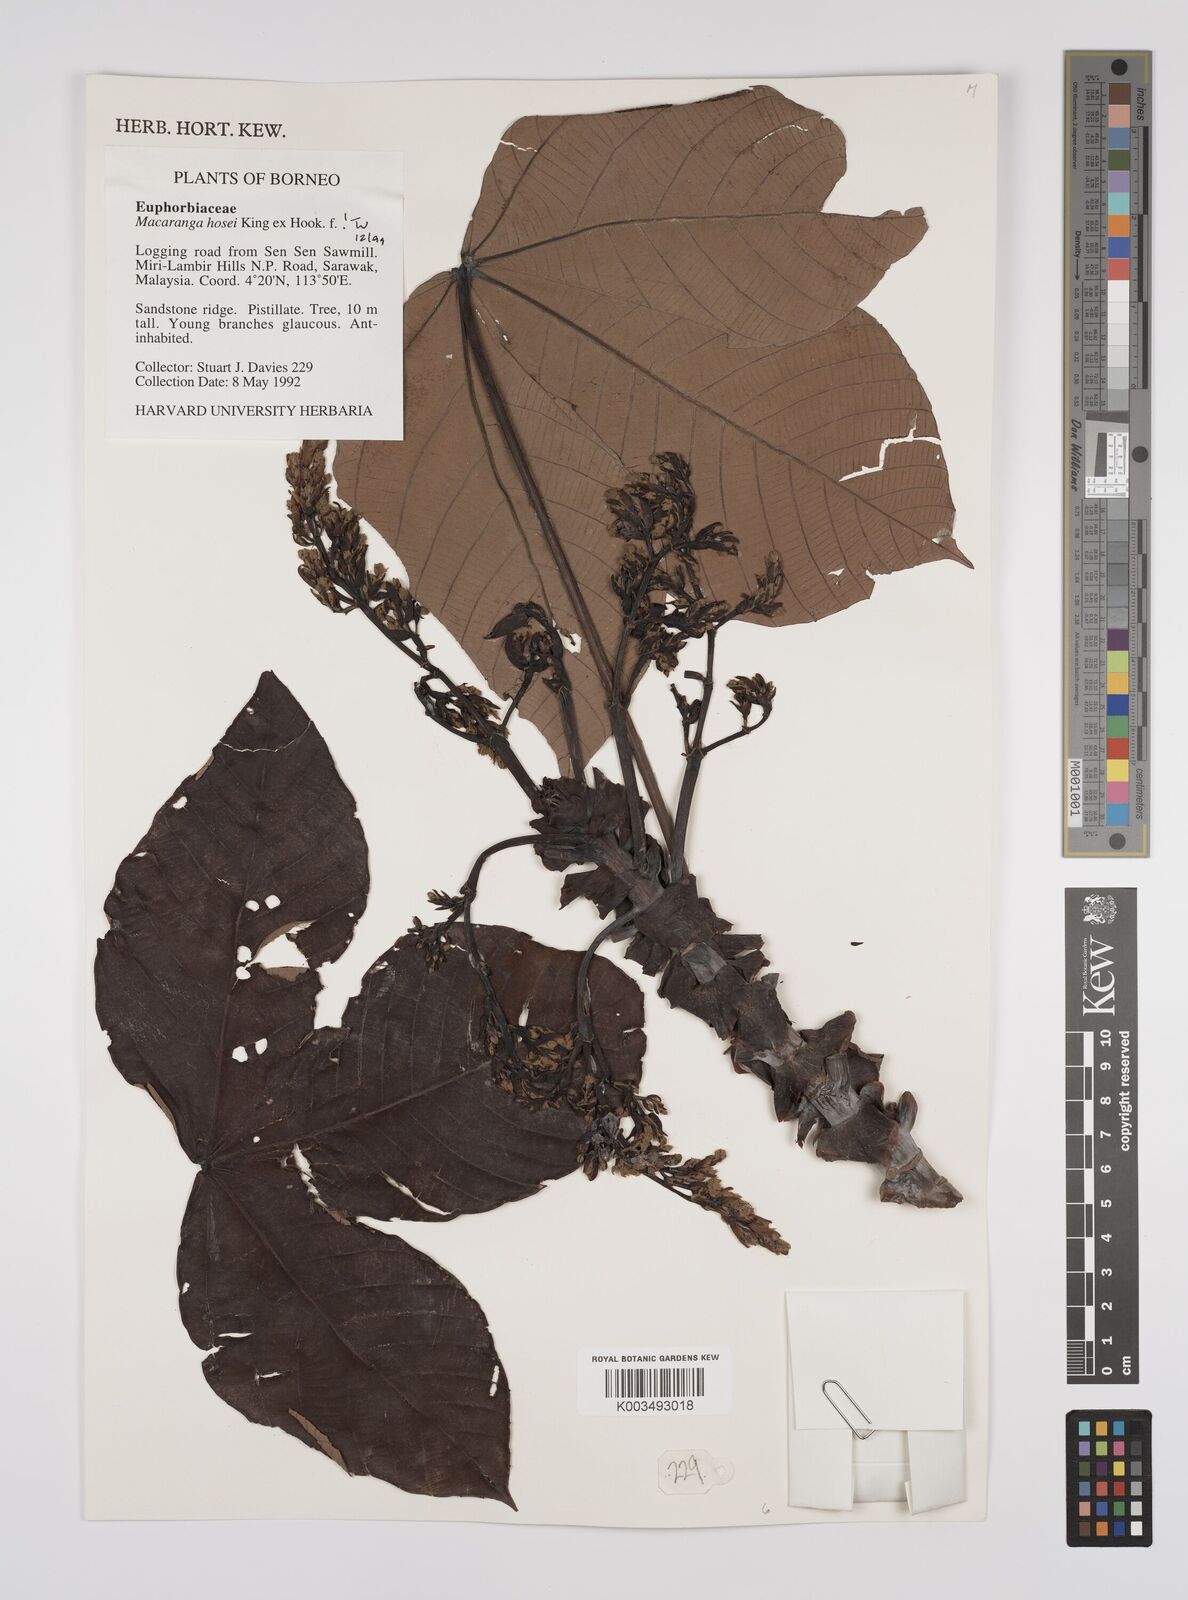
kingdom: Plantae
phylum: Tracheophyta
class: Magnoliopsida
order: Malpighiales
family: Euphorbiaceae
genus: Macaranga
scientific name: Macaranga hosei
